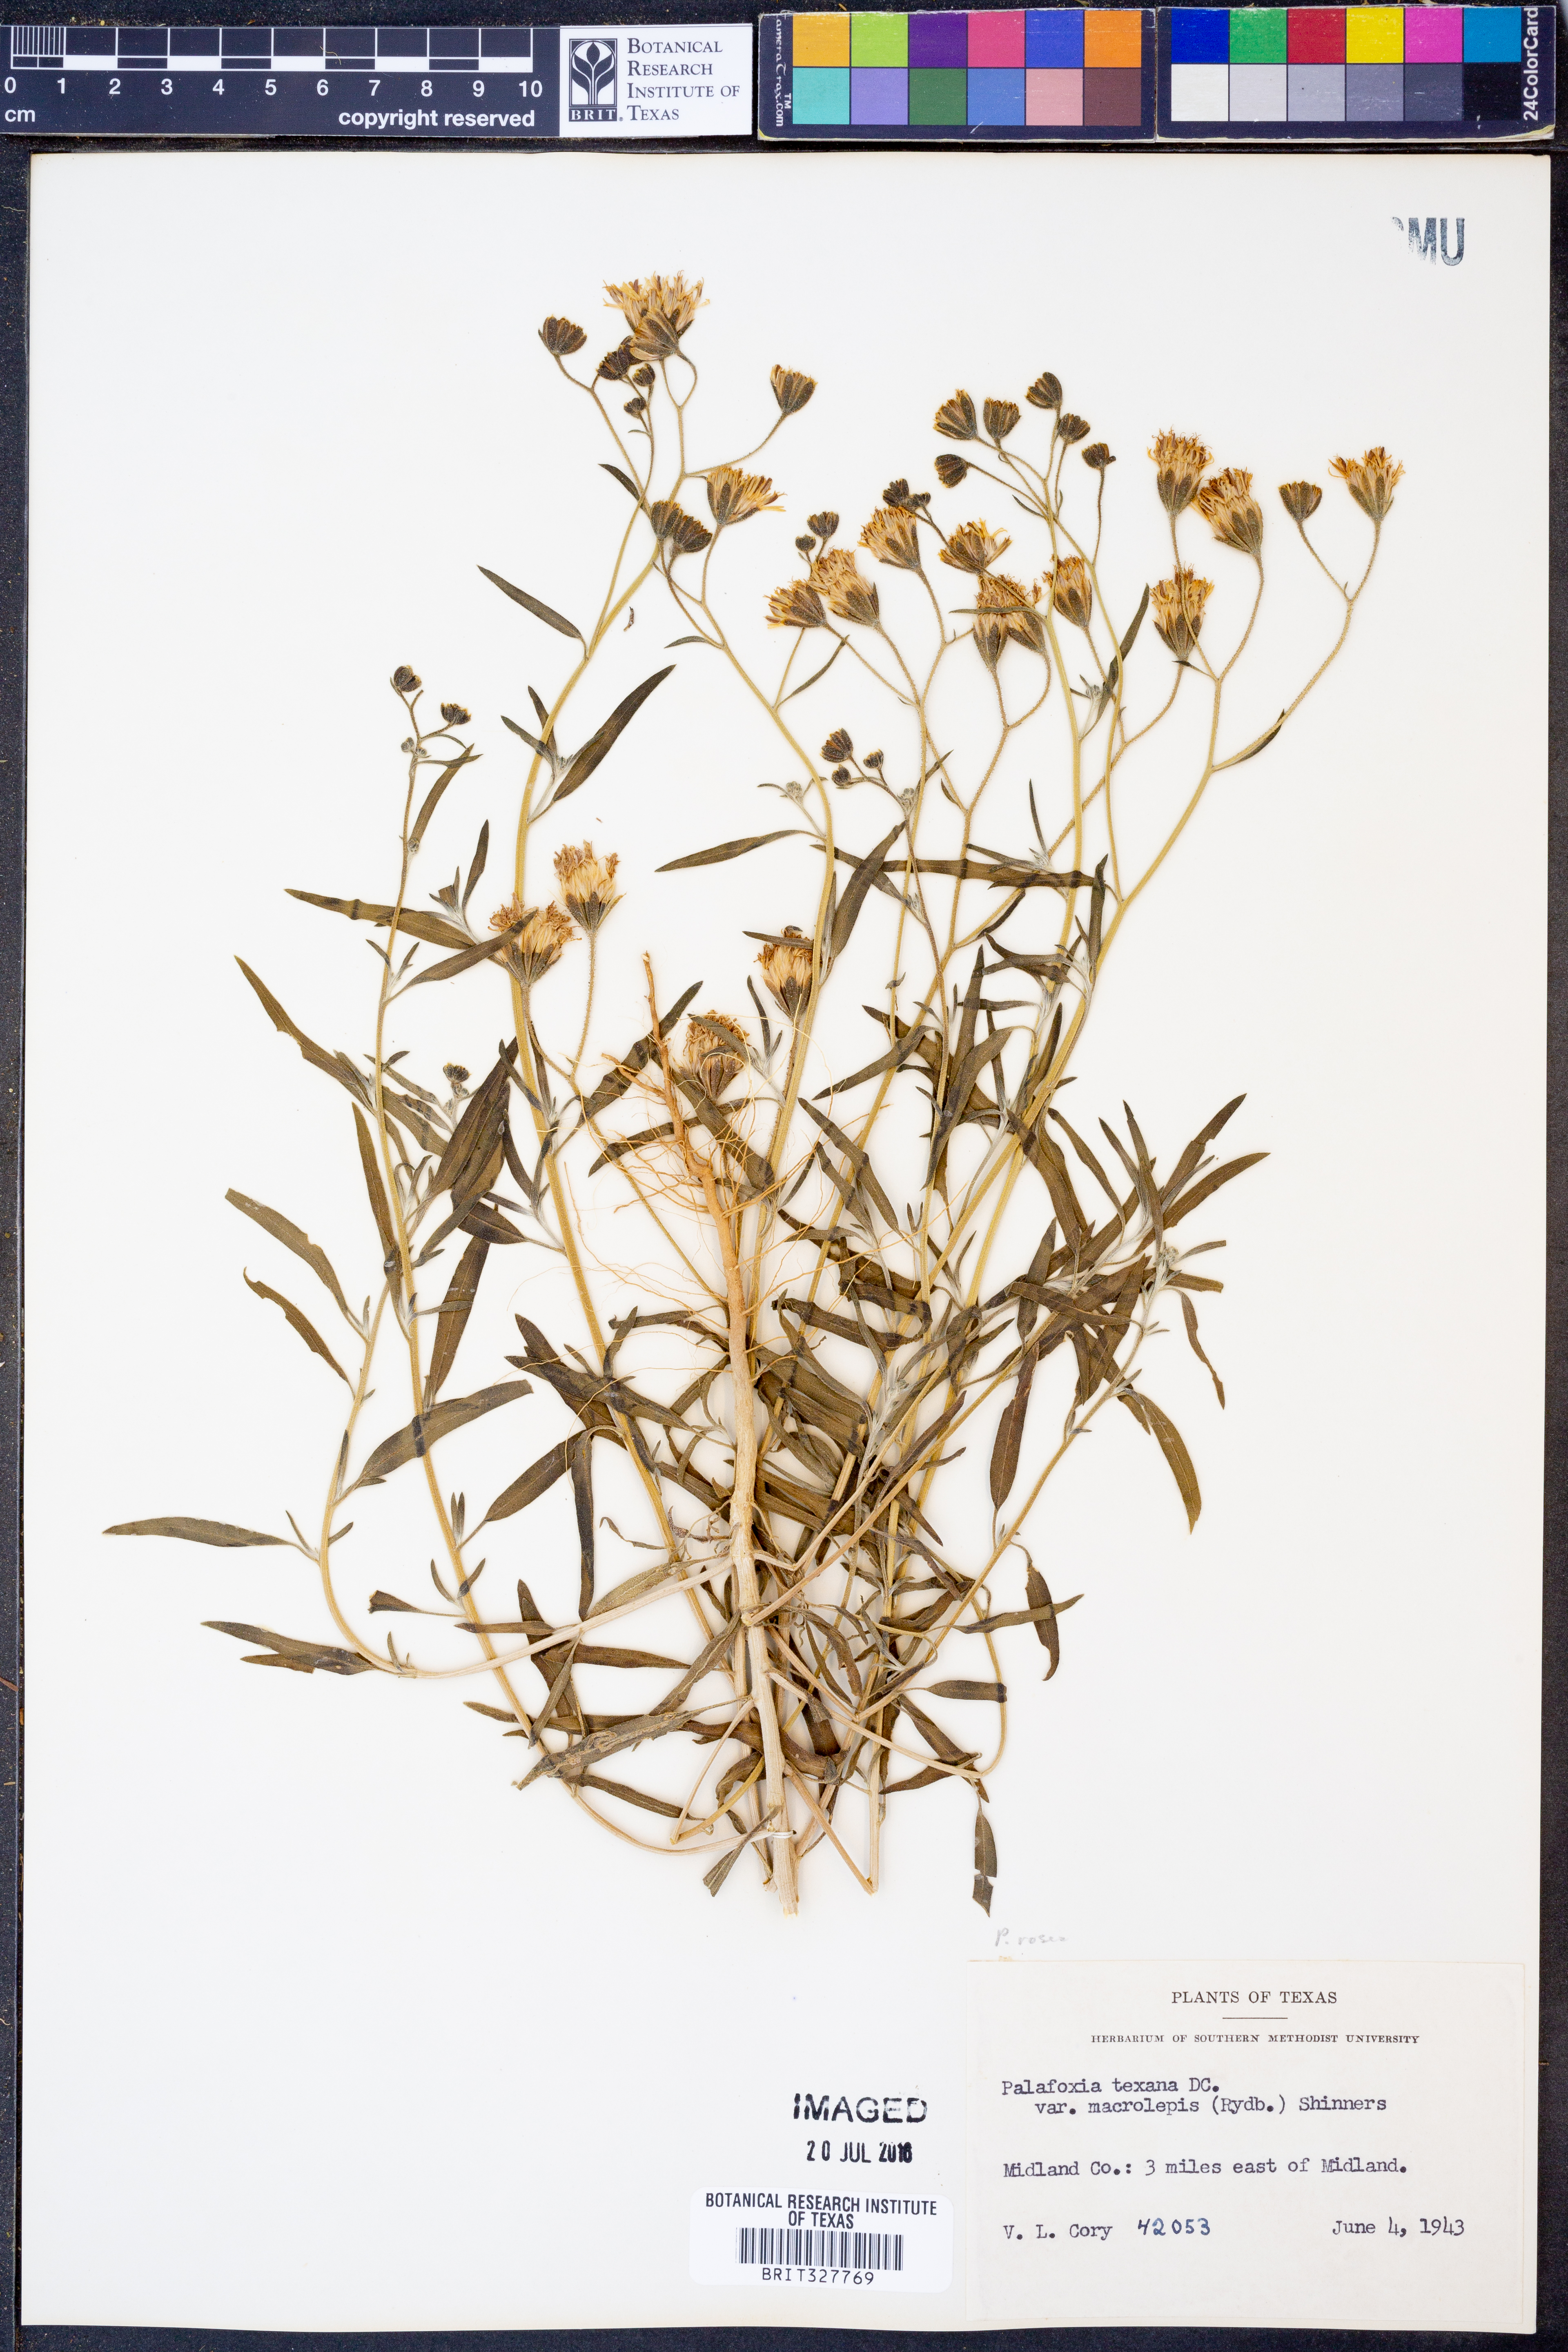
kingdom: Plantae
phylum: Tracheophyta
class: Magnoliopsida
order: Asterales
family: Asteraceae
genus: Palafoxia
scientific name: Palafoxia rosea
